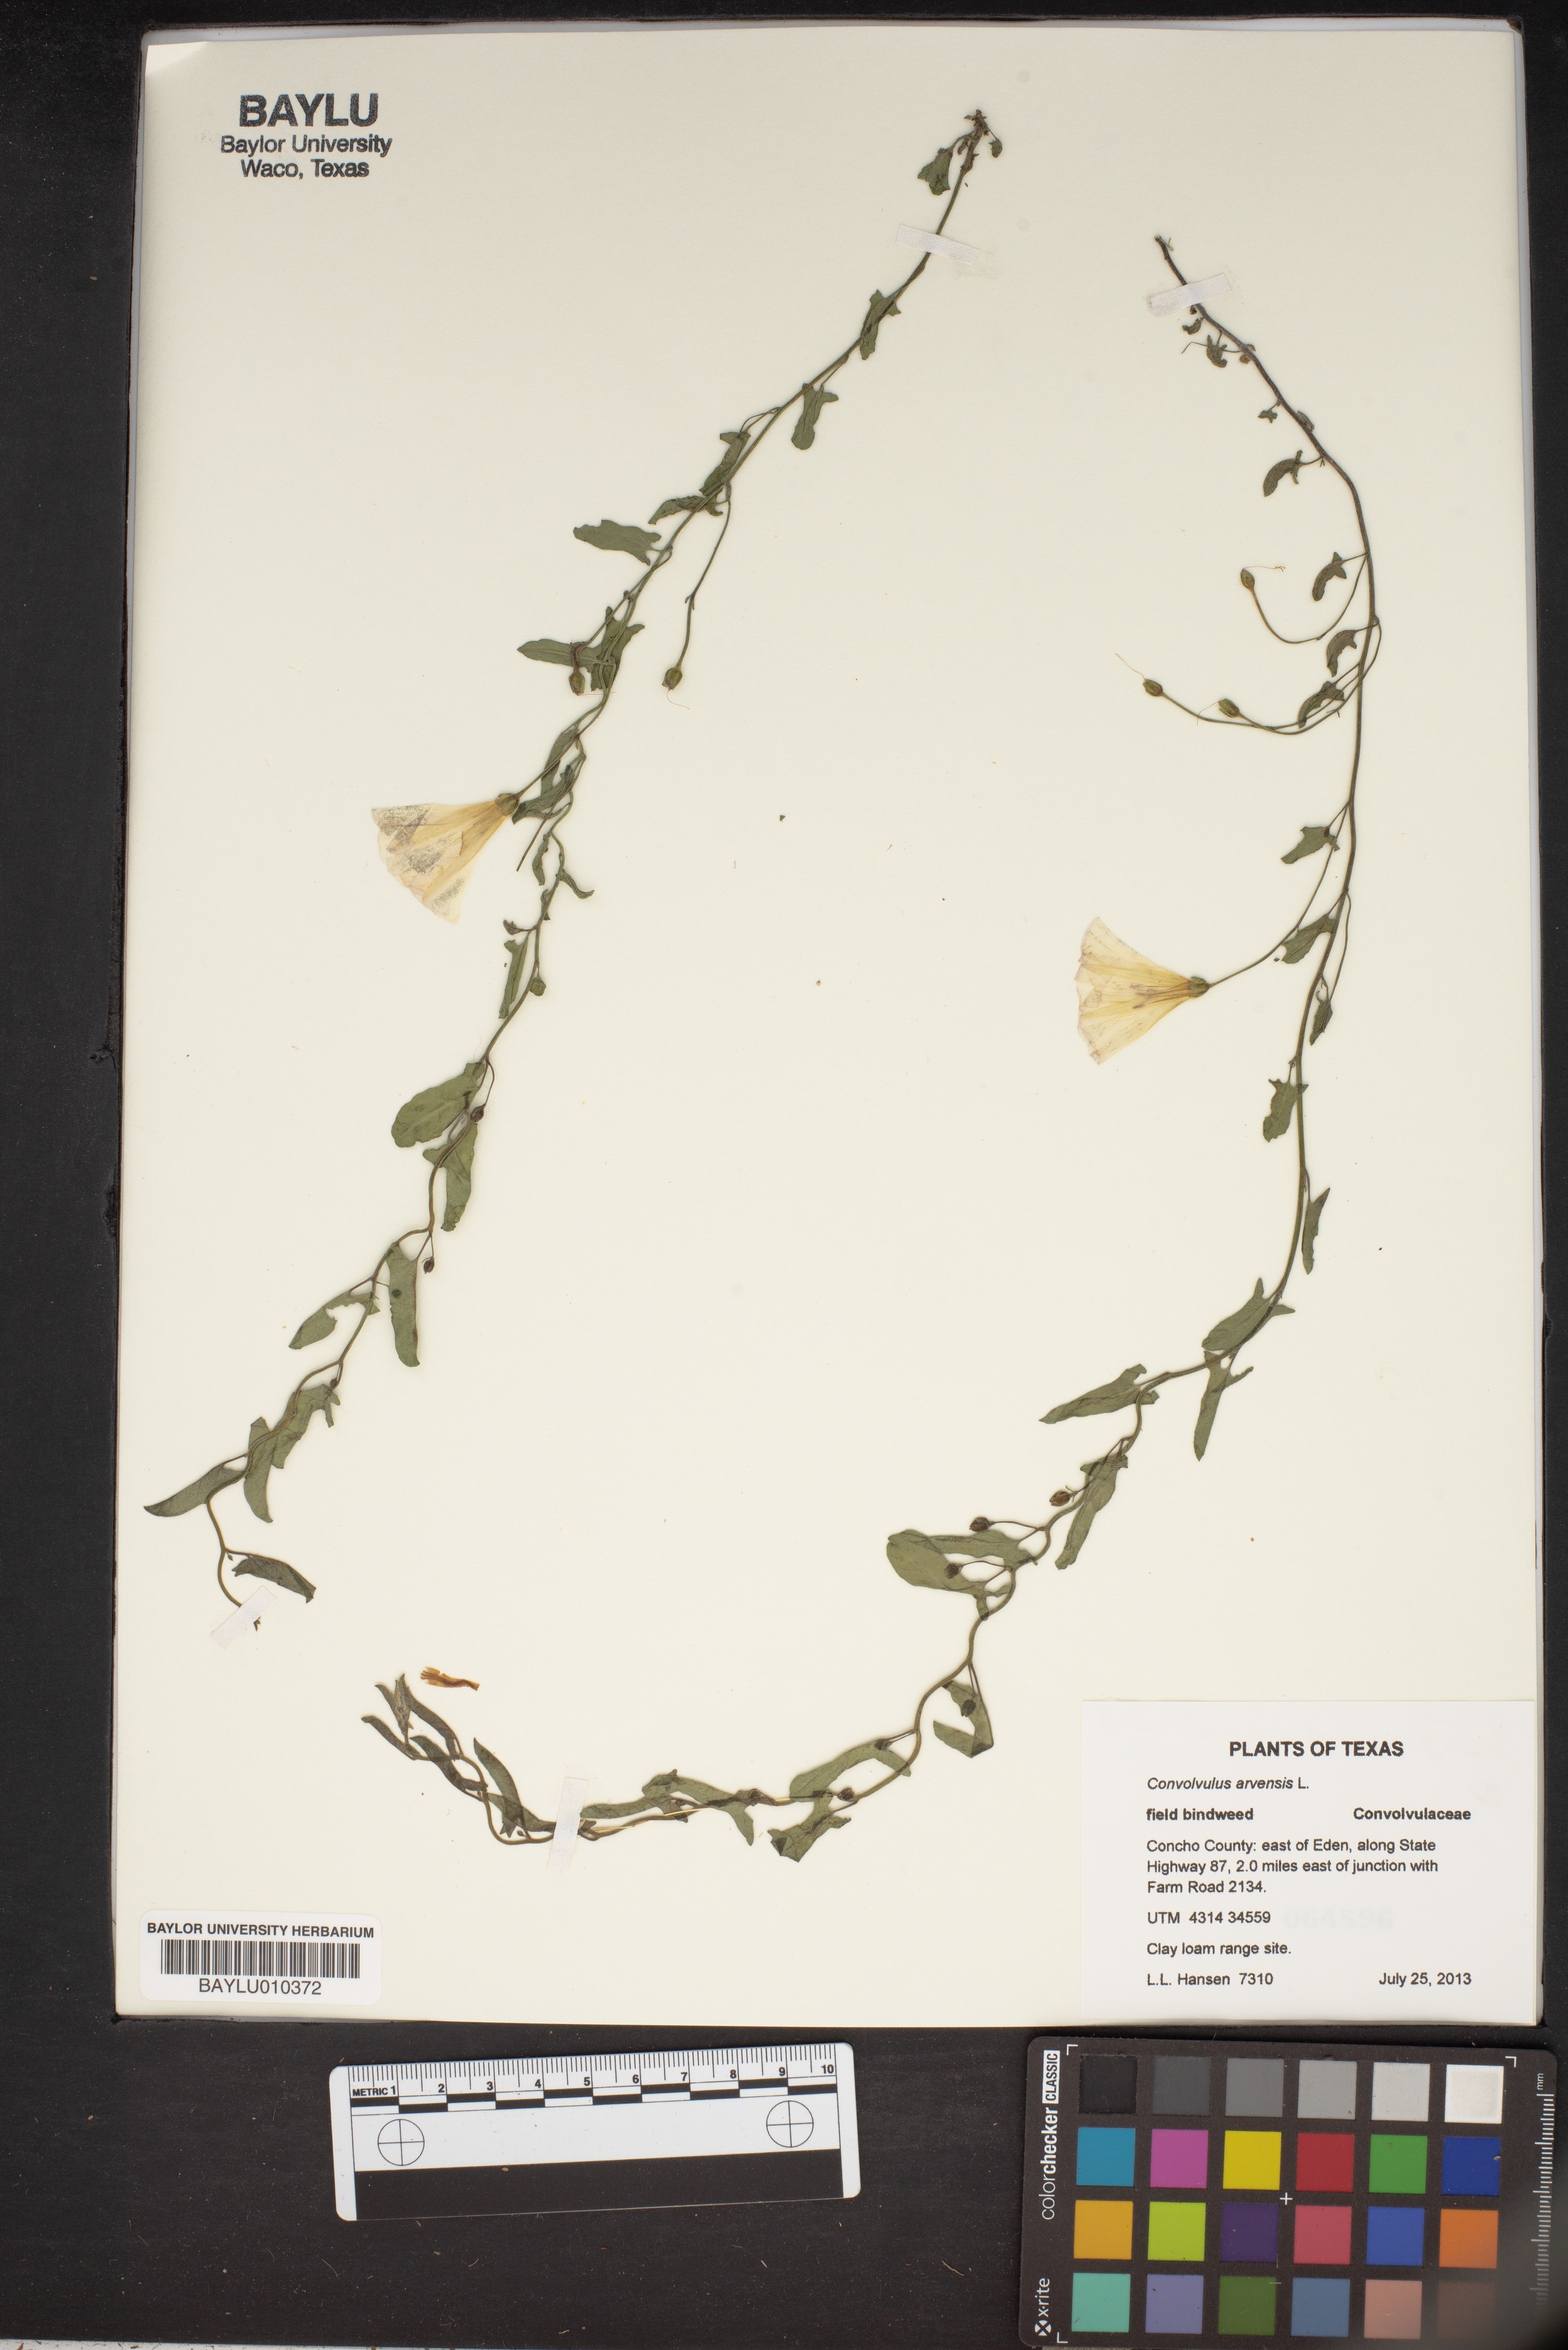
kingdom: Plantae
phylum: Tracheophyta
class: Magnoliopsida
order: Solanales
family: Convolvulaceae
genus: Convolvulus
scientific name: Convolvulus arvensis
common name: Field bindweed
